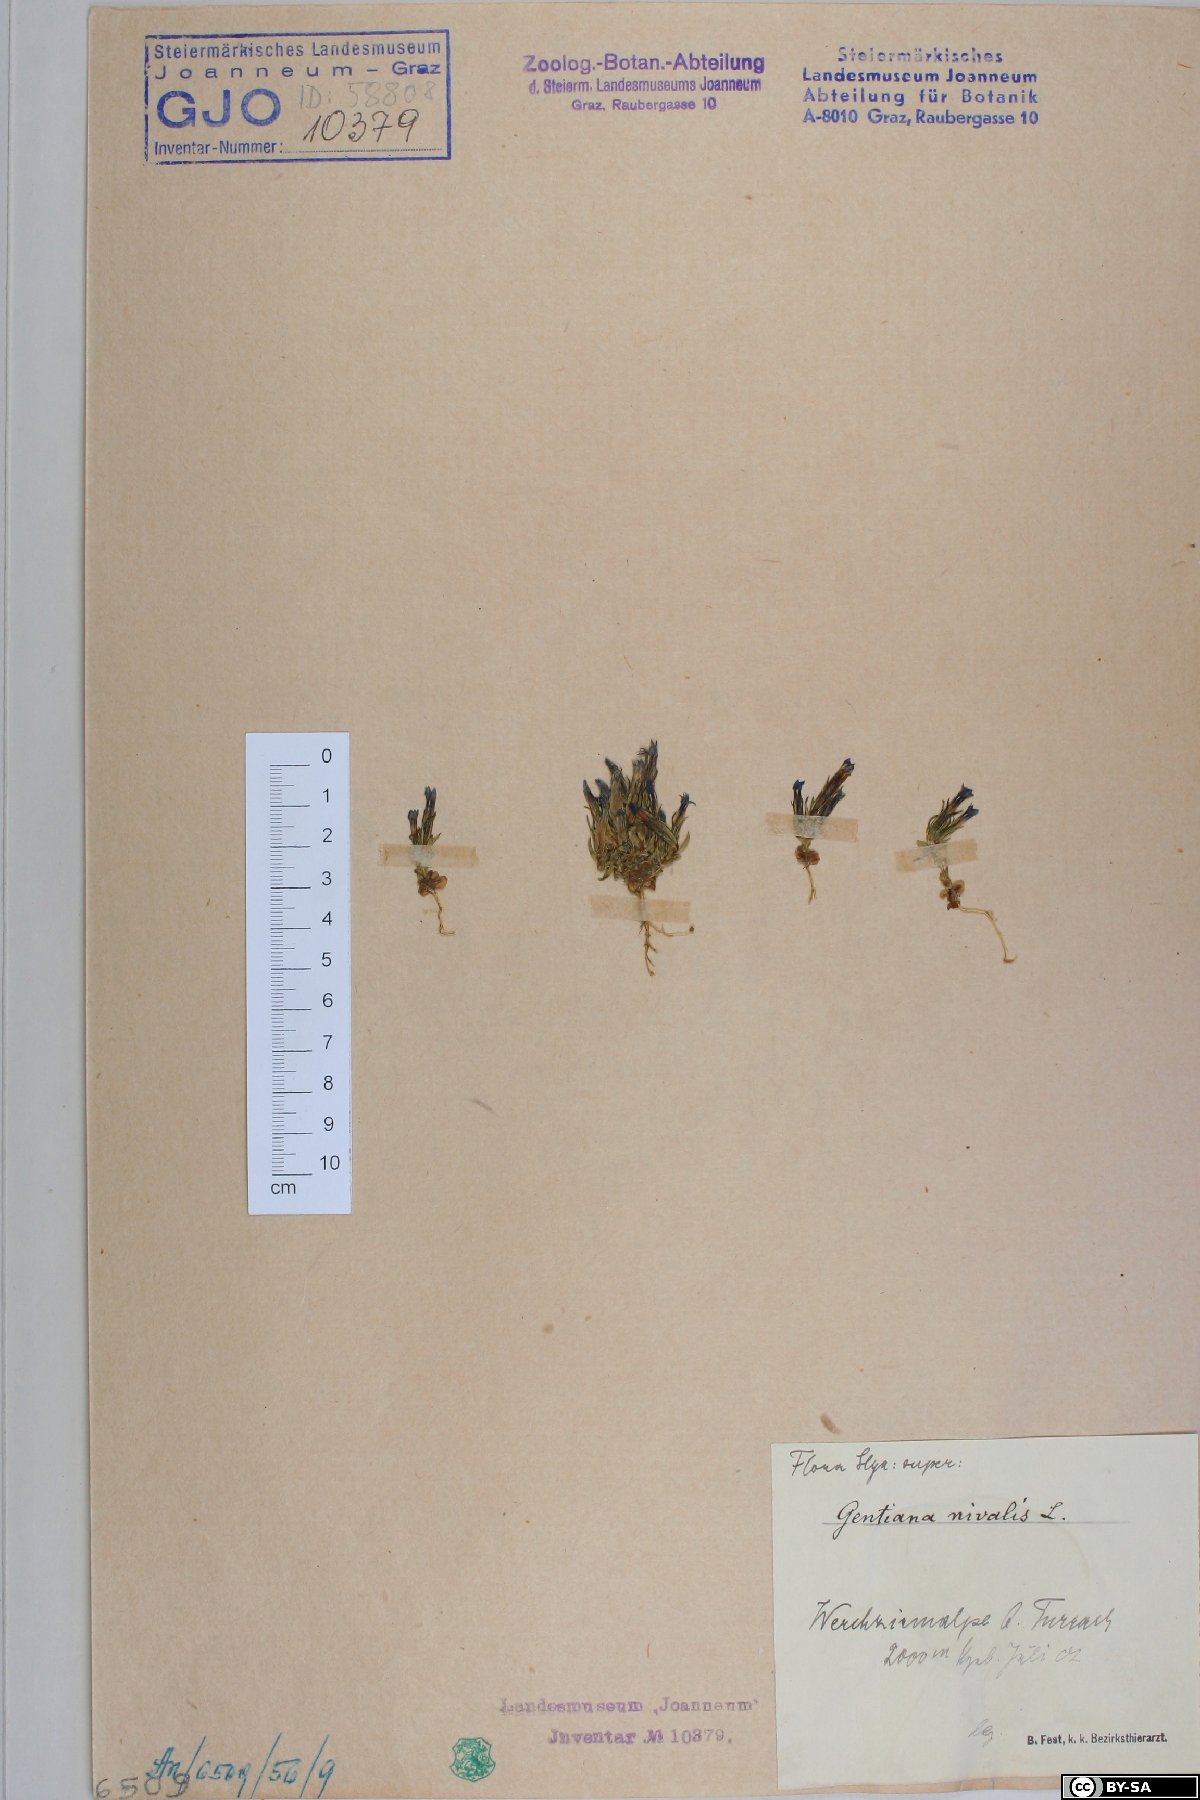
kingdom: Plantae
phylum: Tracheophyta
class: Magnoliopsida
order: Gentianales
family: Gentianaceae
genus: Gentiana
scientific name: Gentiana nivalis
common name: Alpine gentian
